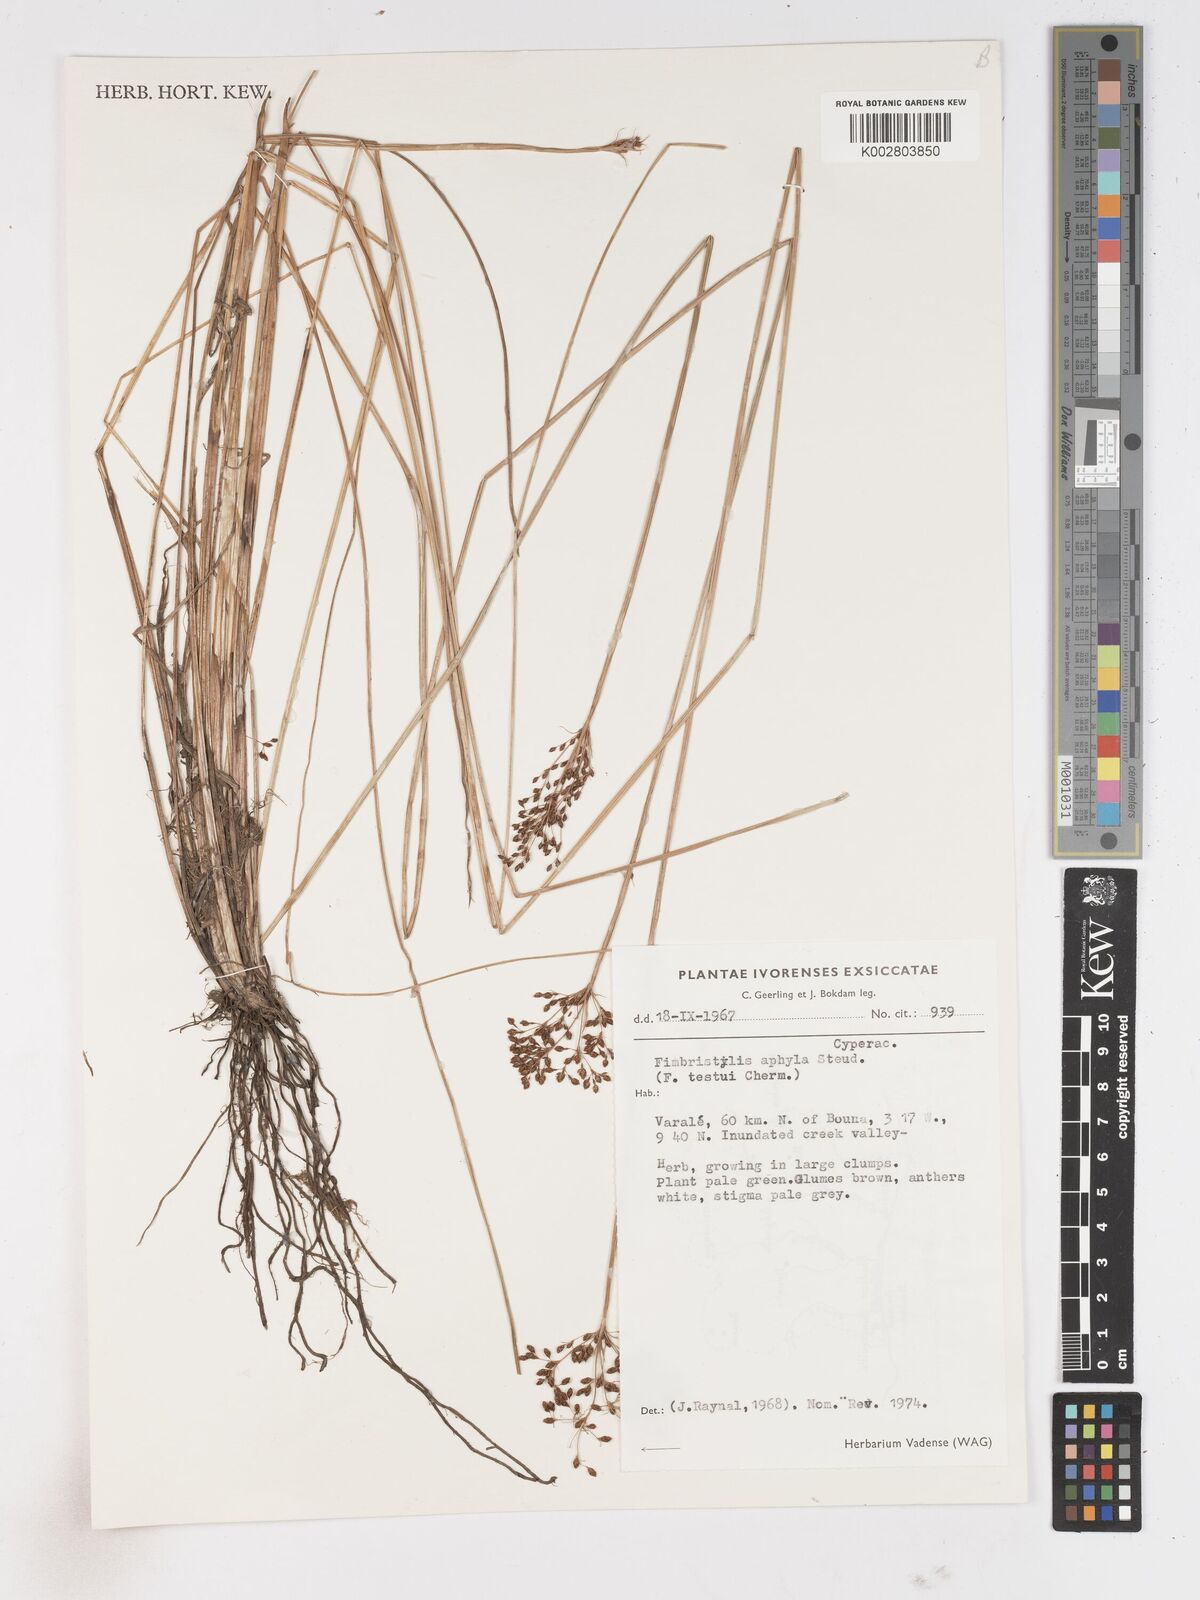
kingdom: Plantae
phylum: Tracheophyta
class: Liliopsida
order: Poales
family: Cyperaceae
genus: Fimbristylis
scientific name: Fimbristylis aphylla
